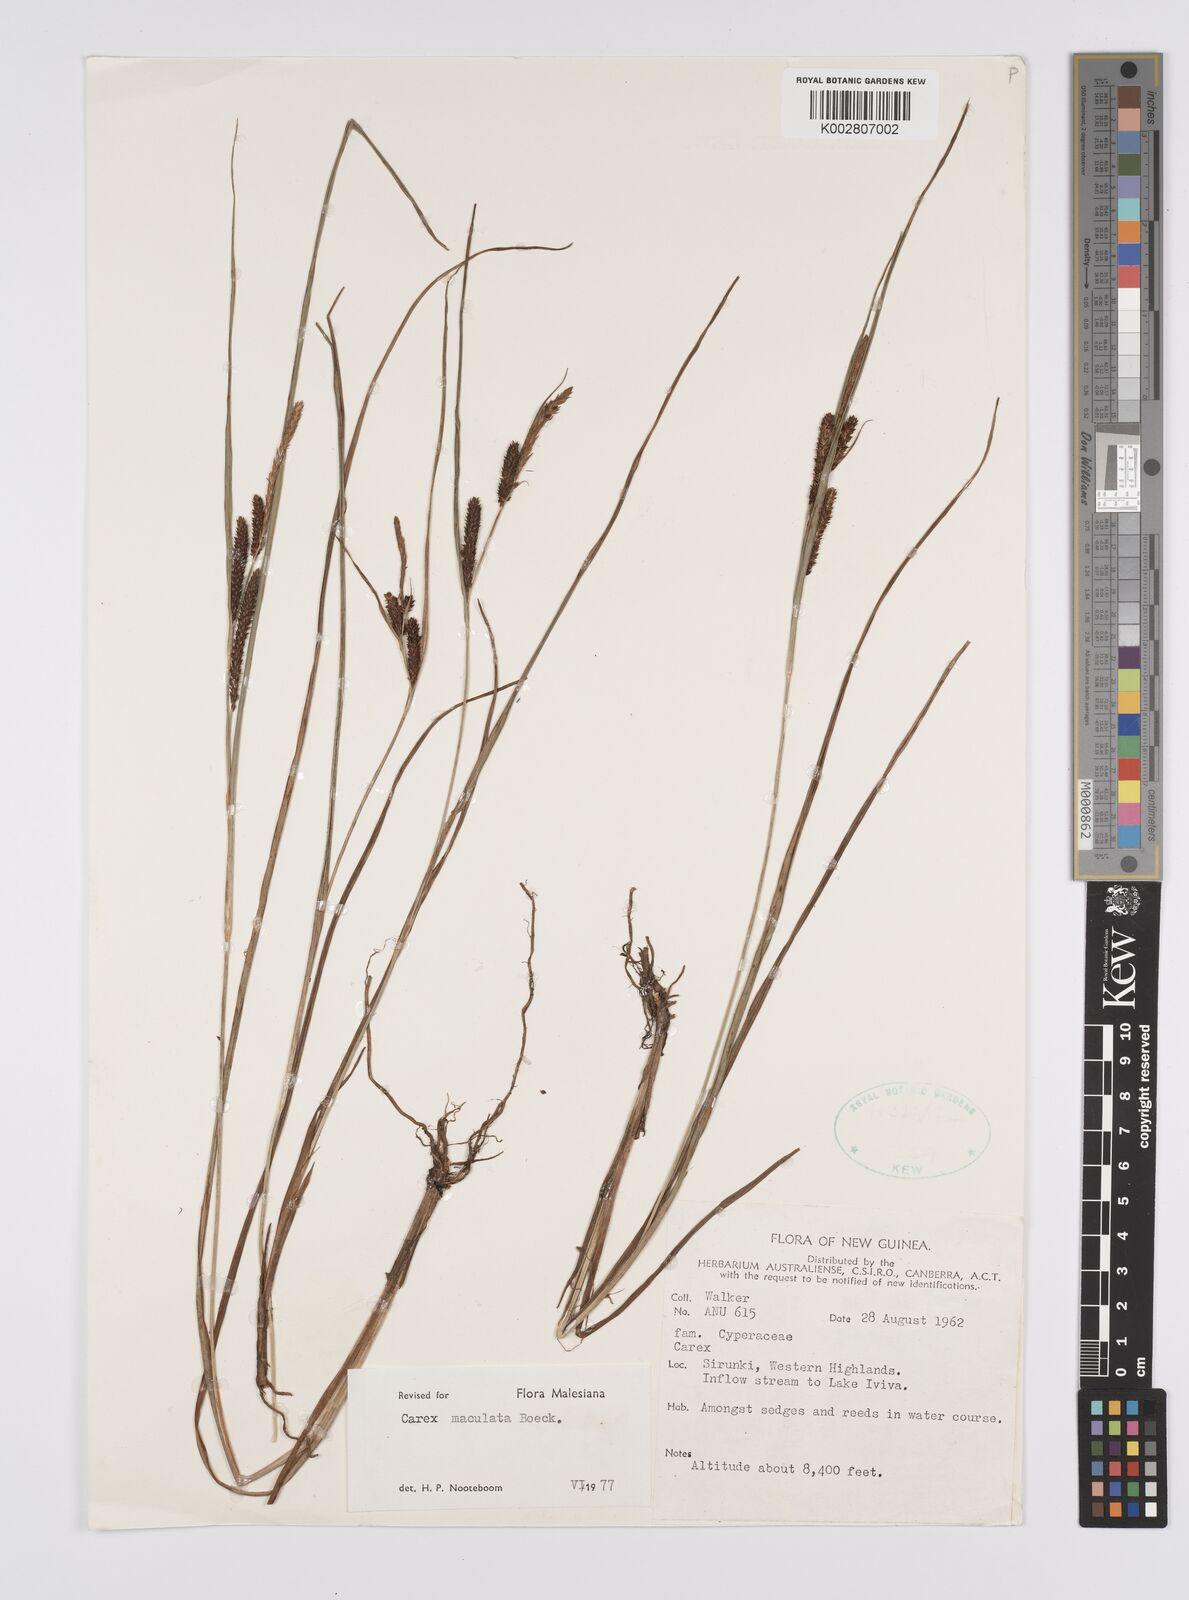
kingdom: Plantae
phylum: Tracheophyta
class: Liliopsida
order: Poales
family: Cyperaceae
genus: Carex
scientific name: Carex maculata
